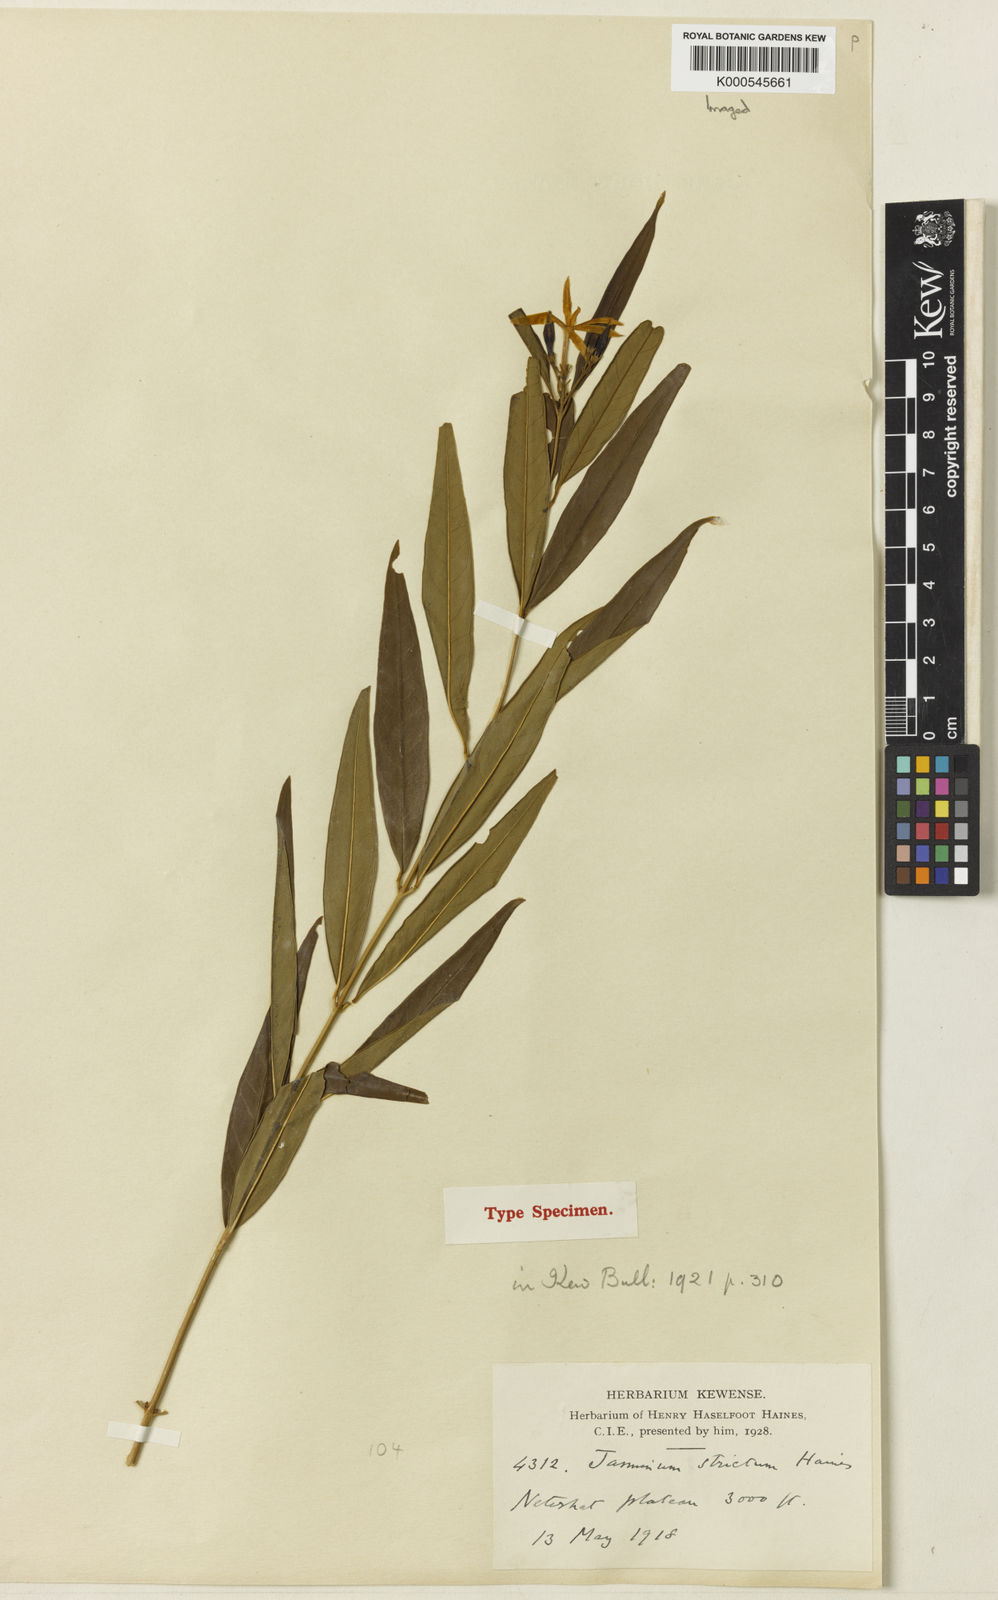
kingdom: Plantae
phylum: Tracheophyta
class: Magnoliopsida
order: Lamiales
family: Oleaceae
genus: Jasminum
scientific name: Jasminum
